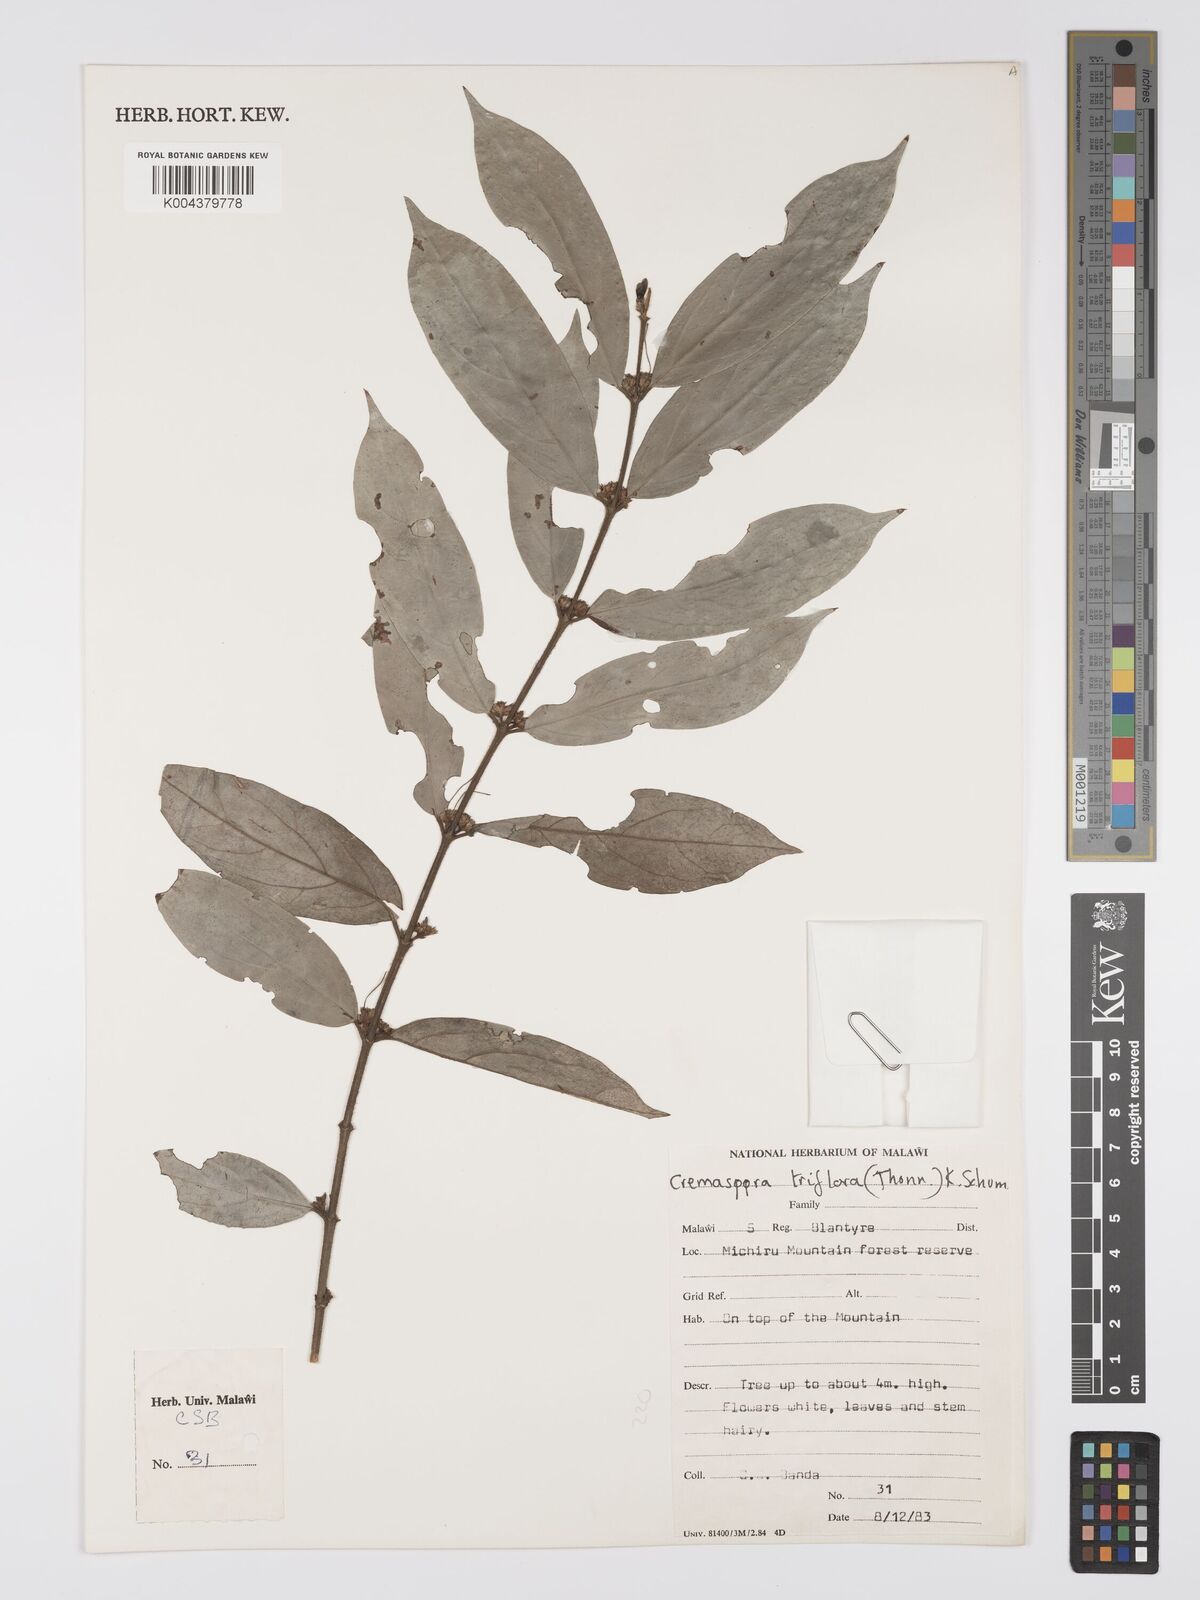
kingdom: Plantae
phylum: Tracheophyta
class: Magnoliopsida
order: Gentianales
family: Rubiaceae
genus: Cremaspora
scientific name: Cremaspora triflora
